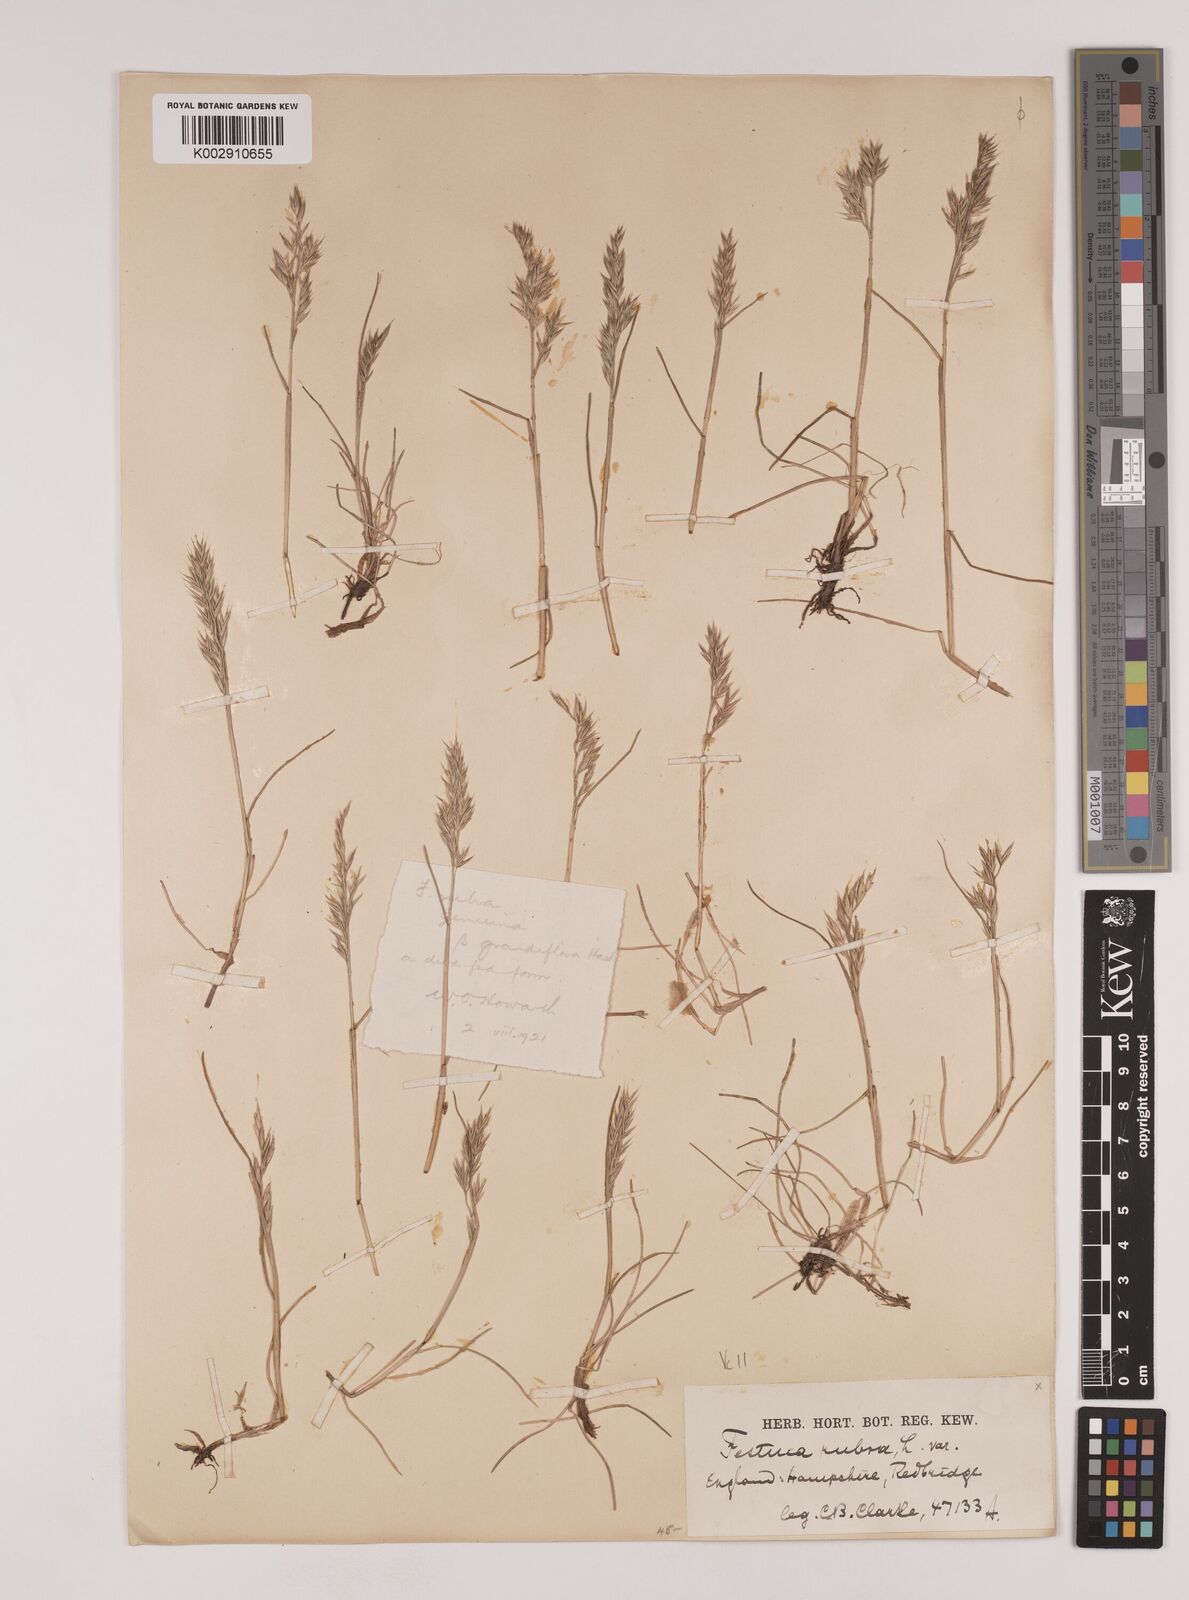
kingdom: Plantae
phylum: Tracheophyta
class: Liliopsida
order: Poales
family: Poaceae
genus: Festuca
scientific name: Festuca rubra
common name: Red fescue
